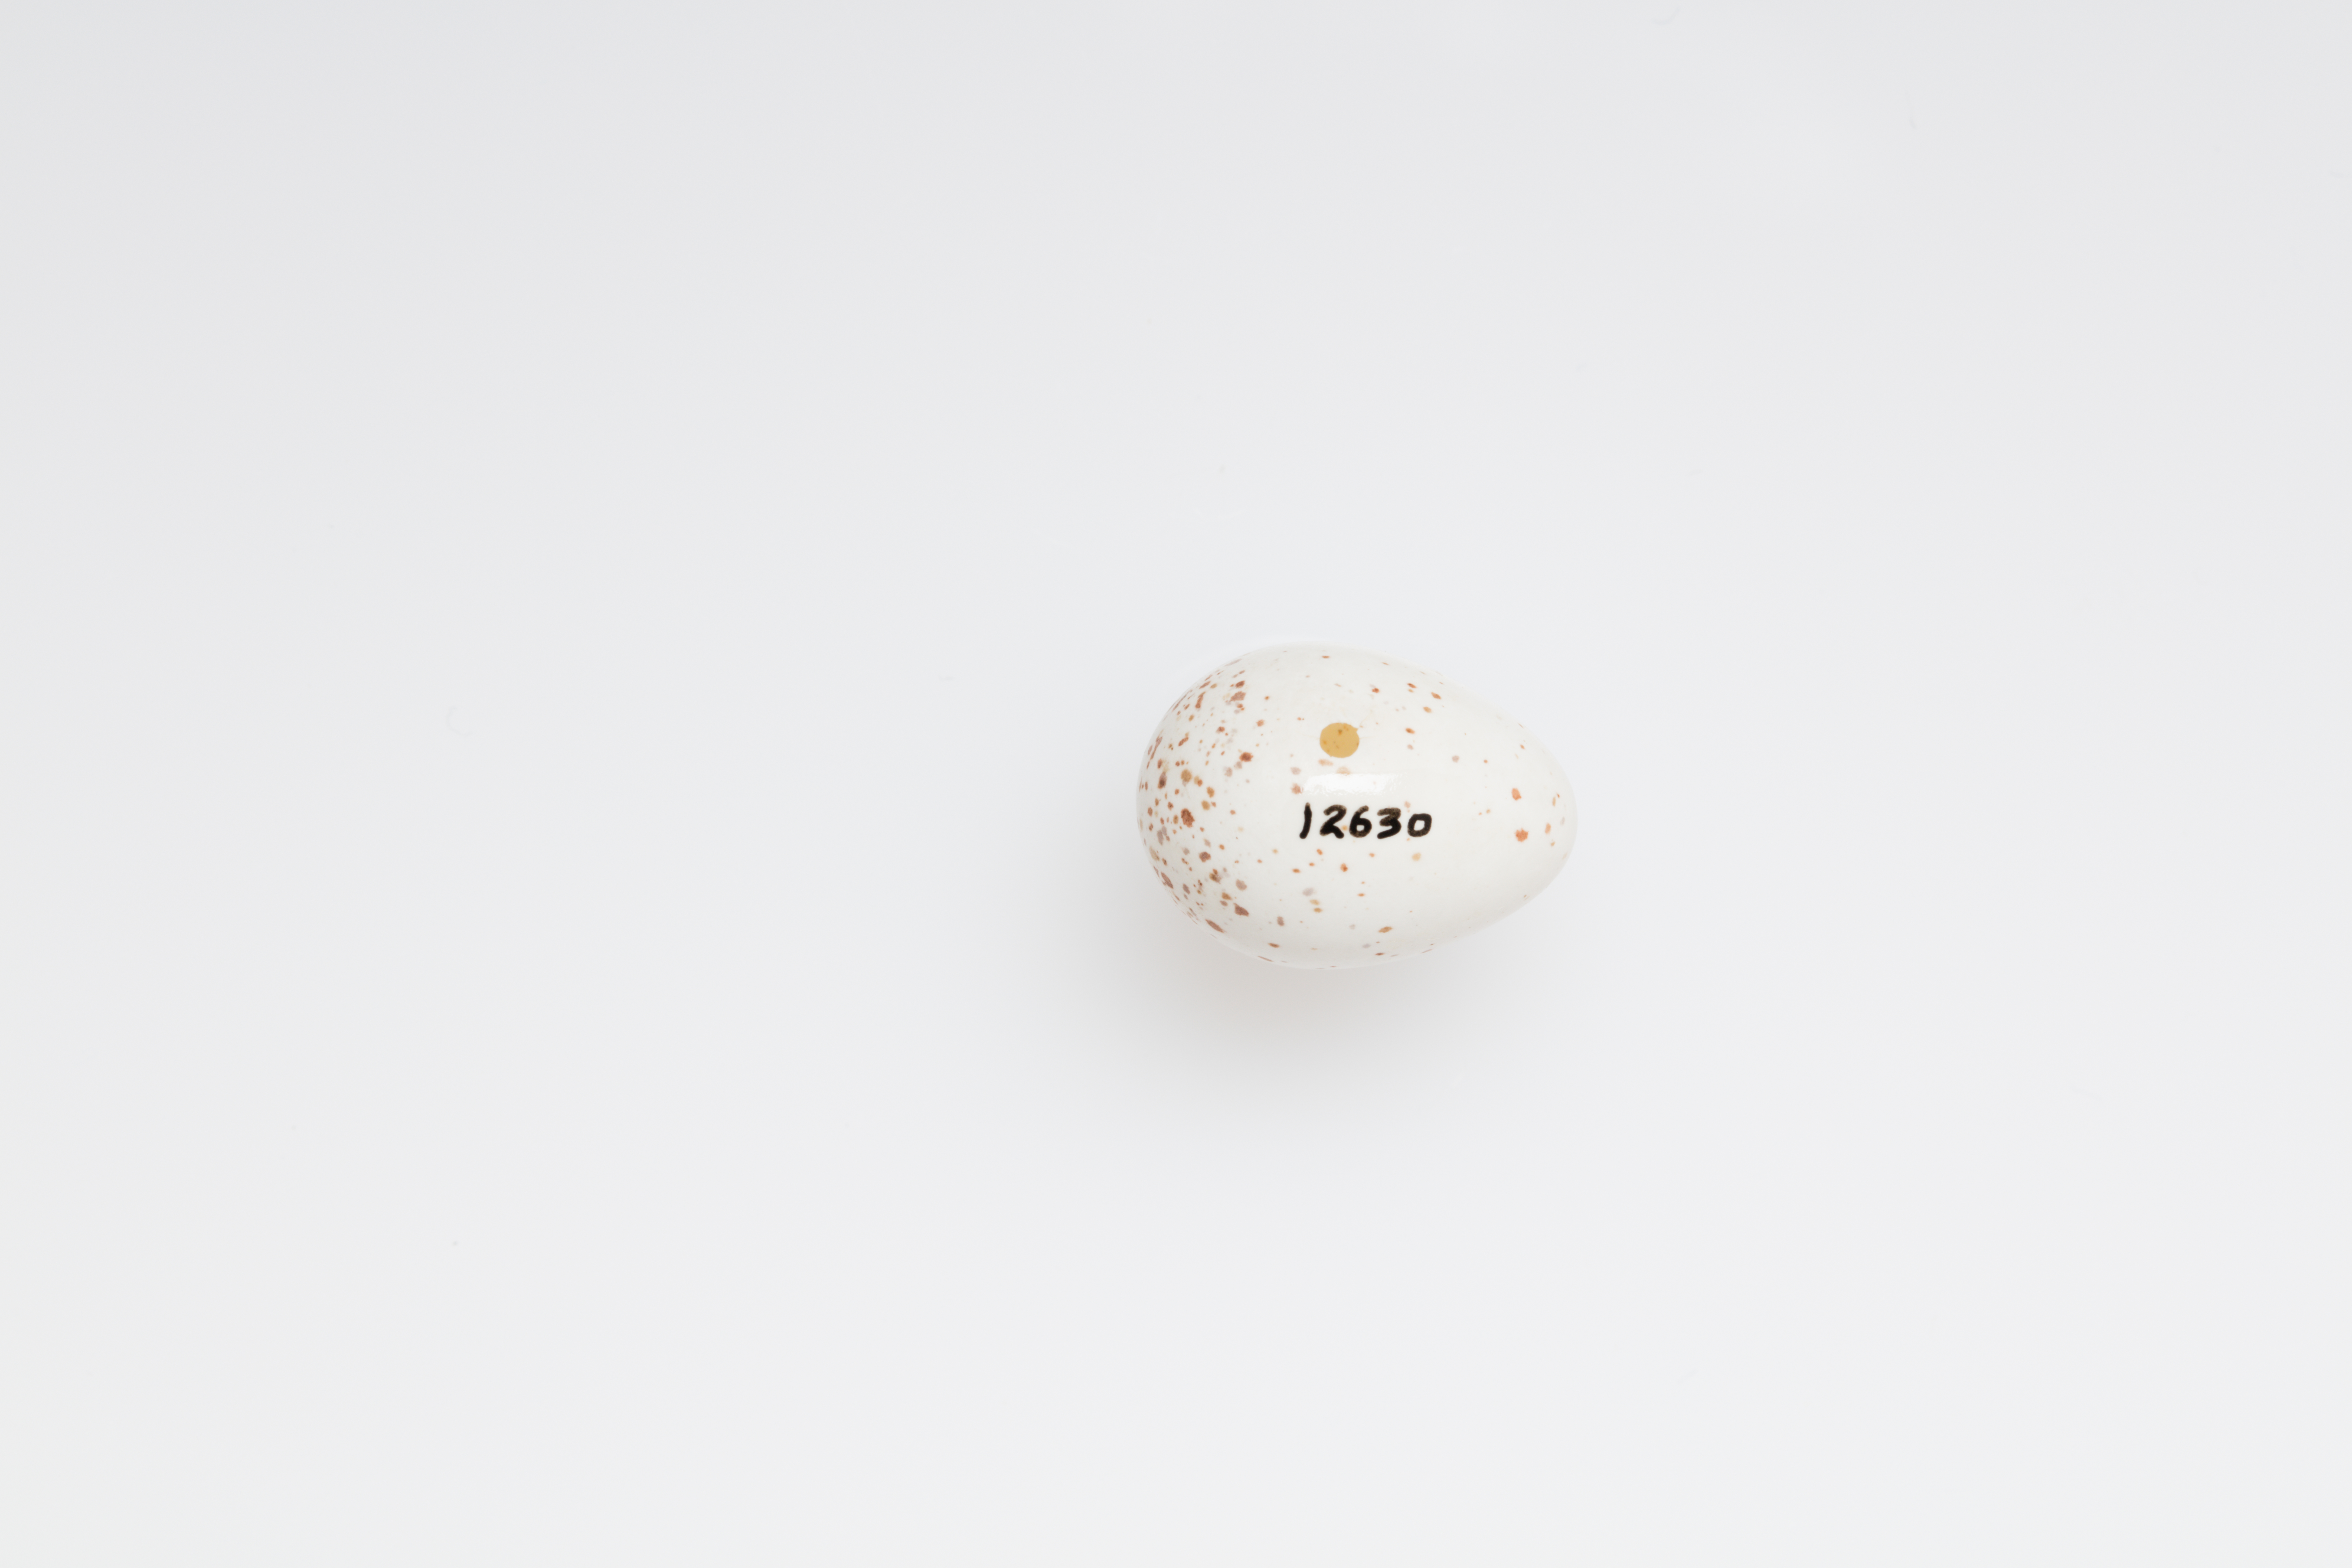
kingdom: Animalia
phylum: Chordata
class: Aves
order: Passeriformes
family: Hirundinidae
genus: Petrochelidon
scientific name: Petrochelidon ariel
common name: Fairy martin
